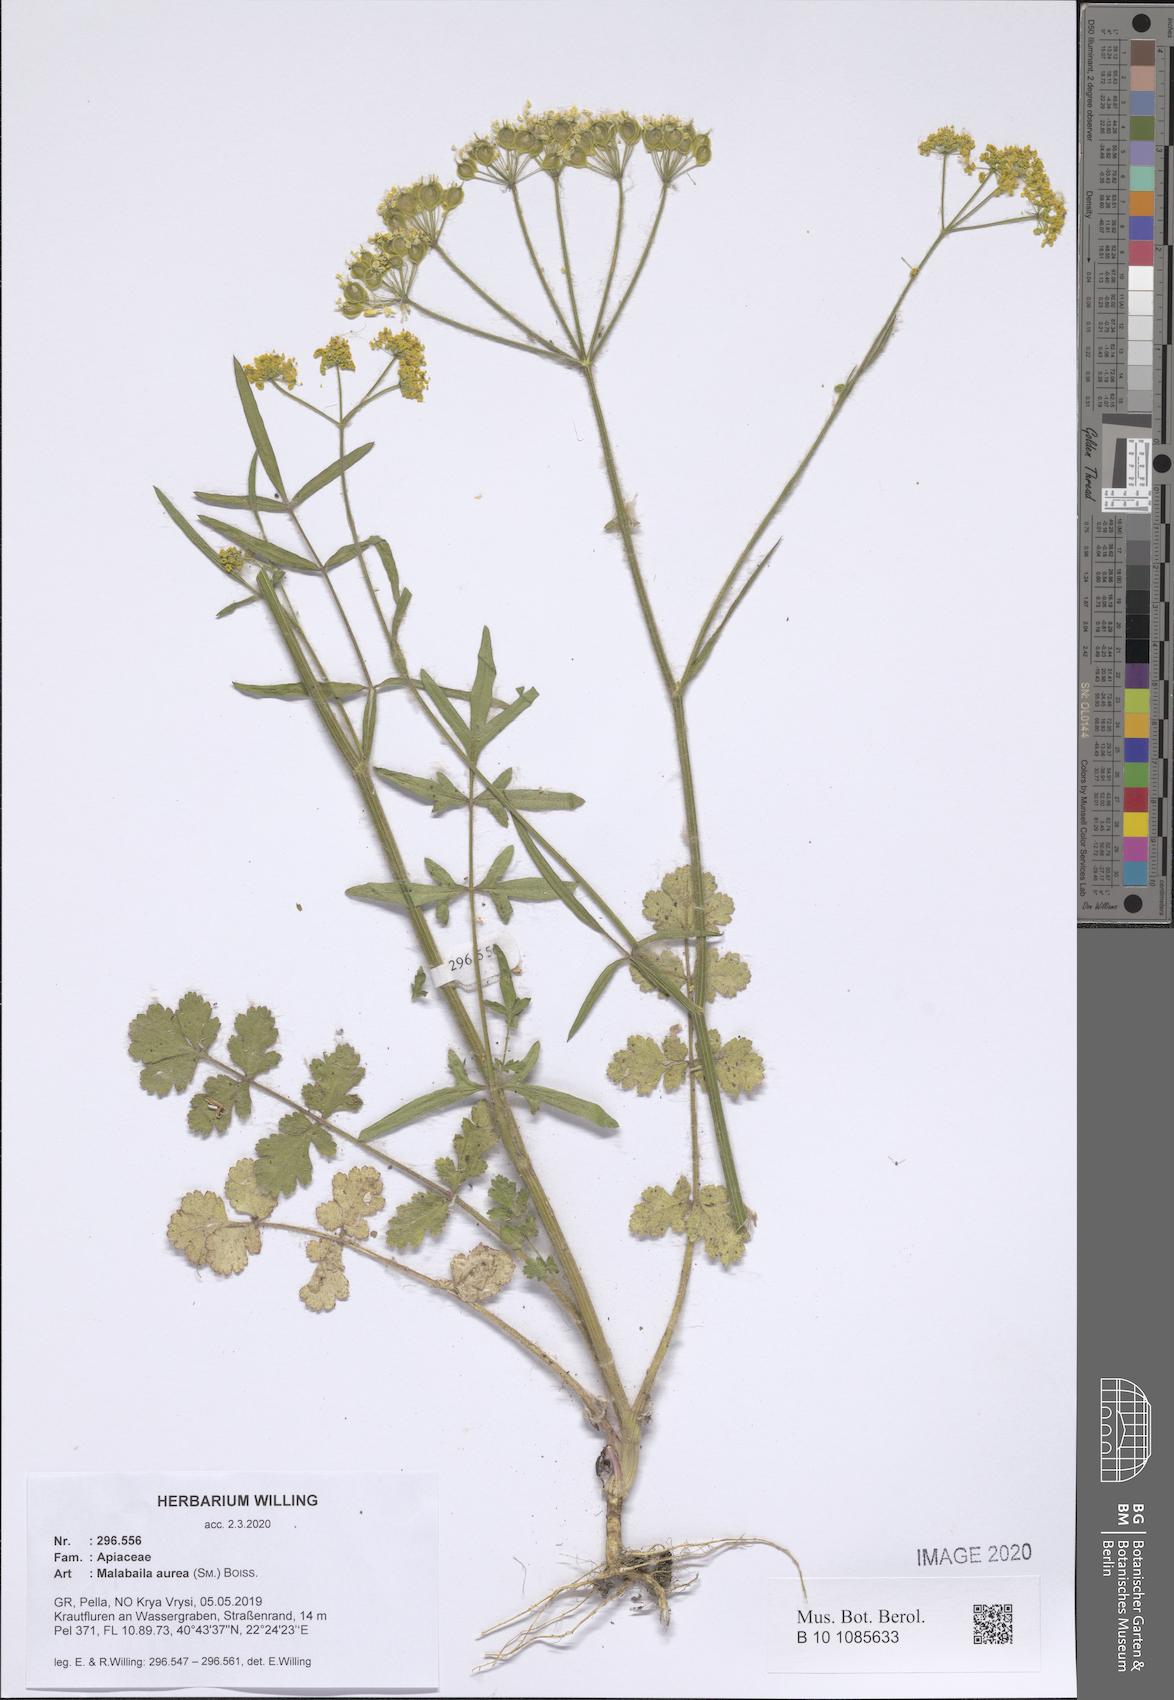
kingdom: Plantae
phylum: Tracheophyta
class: Magnoliopsida
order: Apiales
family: Apiaceae
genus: Leiotulus
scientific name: Leiotulus aureus
